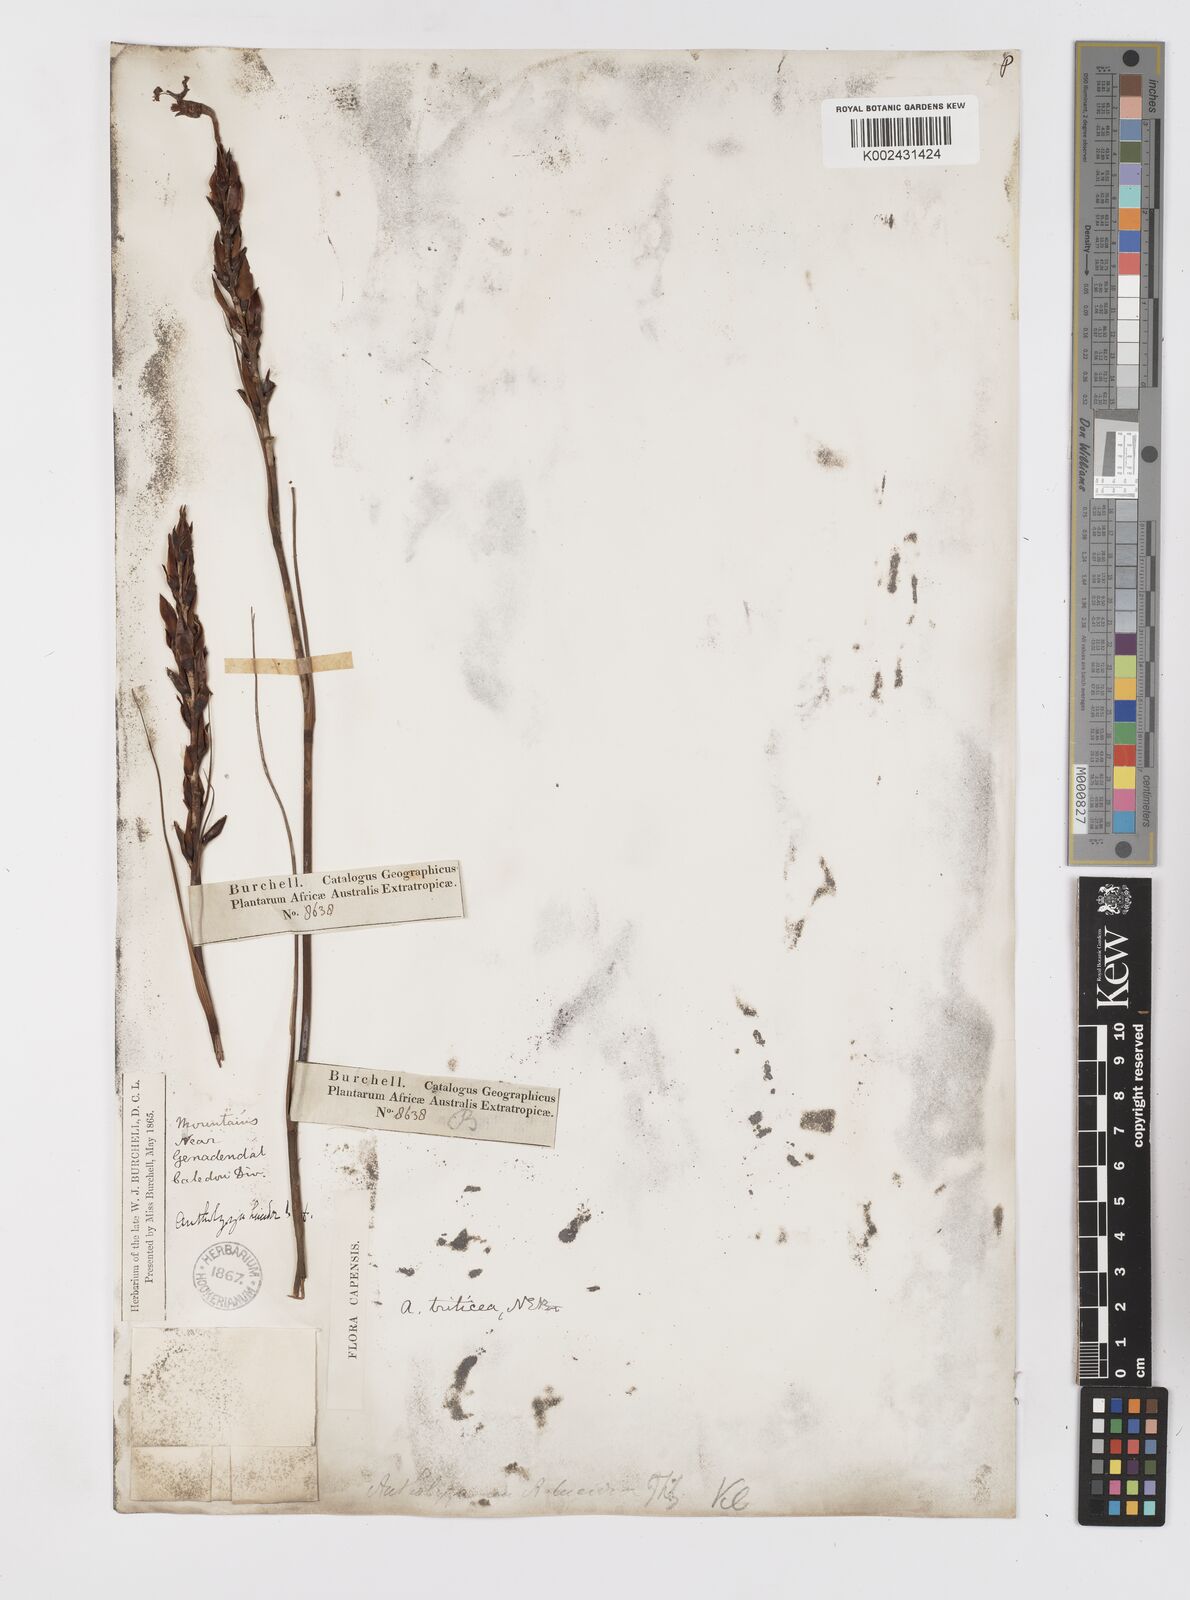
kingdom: Plantae
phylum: Tracheophyta
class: Liliopsida
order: Asparagales
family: Iridaceae
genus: Tritoniopsis
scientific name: Tritoniopsis triticea
